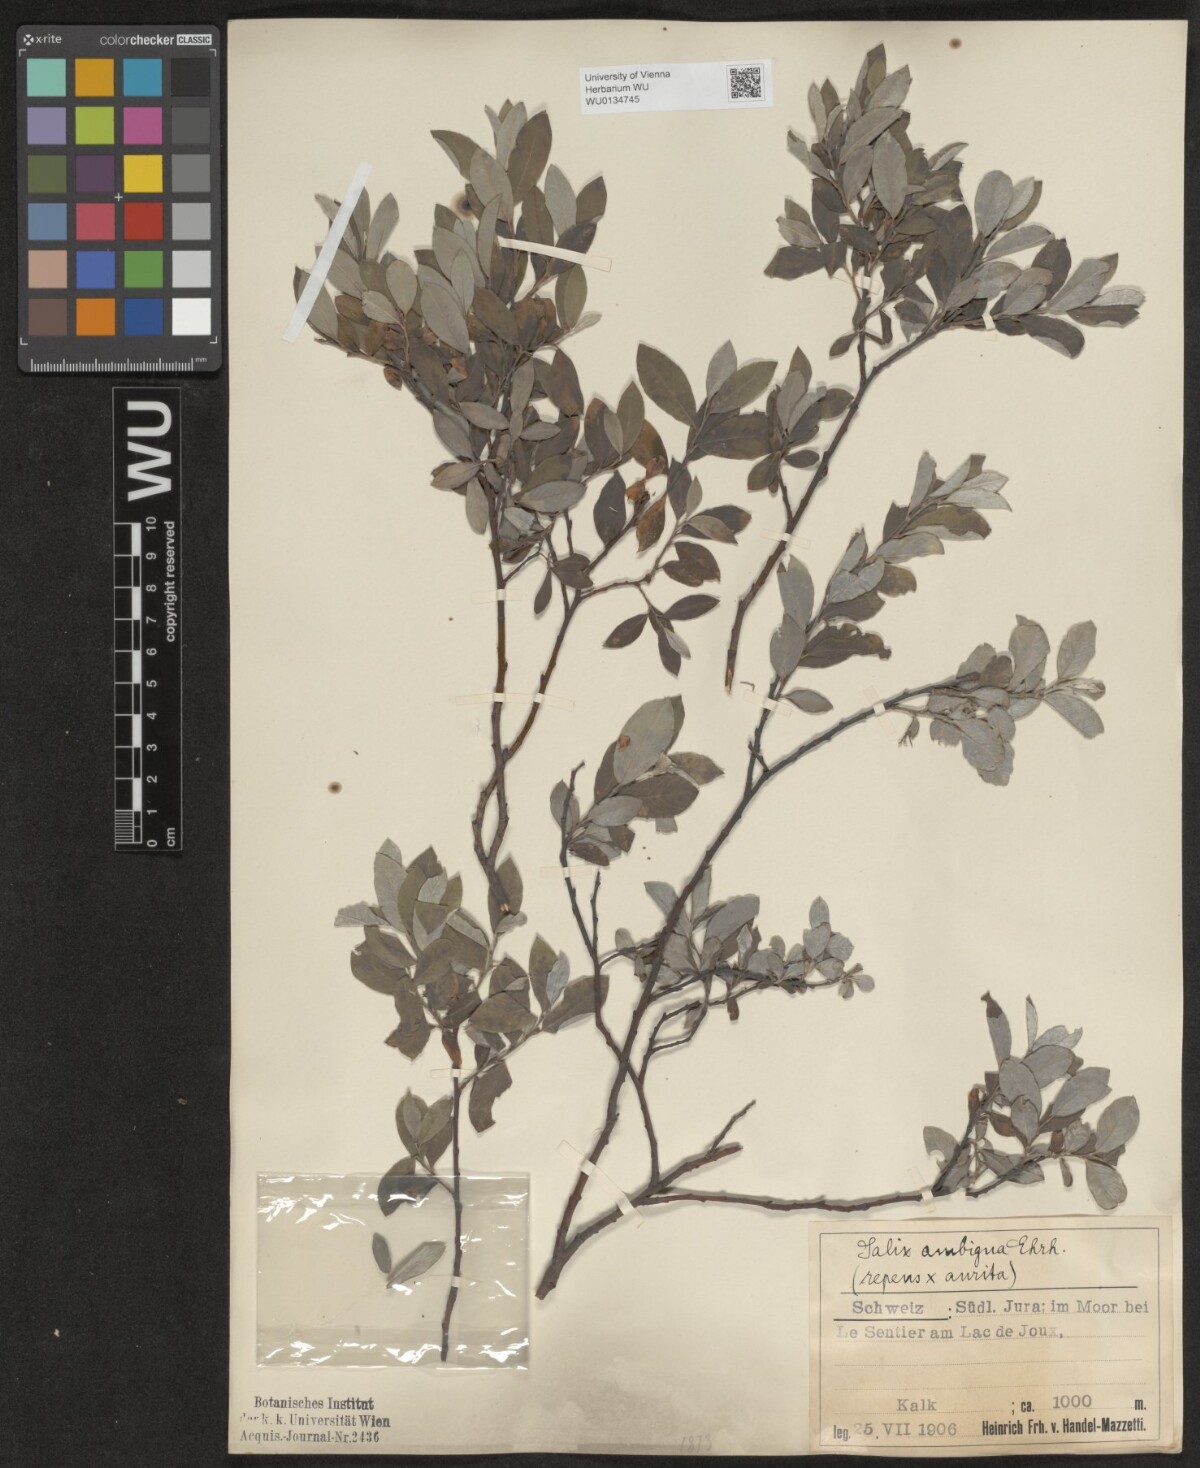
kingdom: Plantae
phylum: Tracheophyta
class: Magnoliopsida
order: Malpighiales
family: Salicaceae
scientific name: Salicaceae
